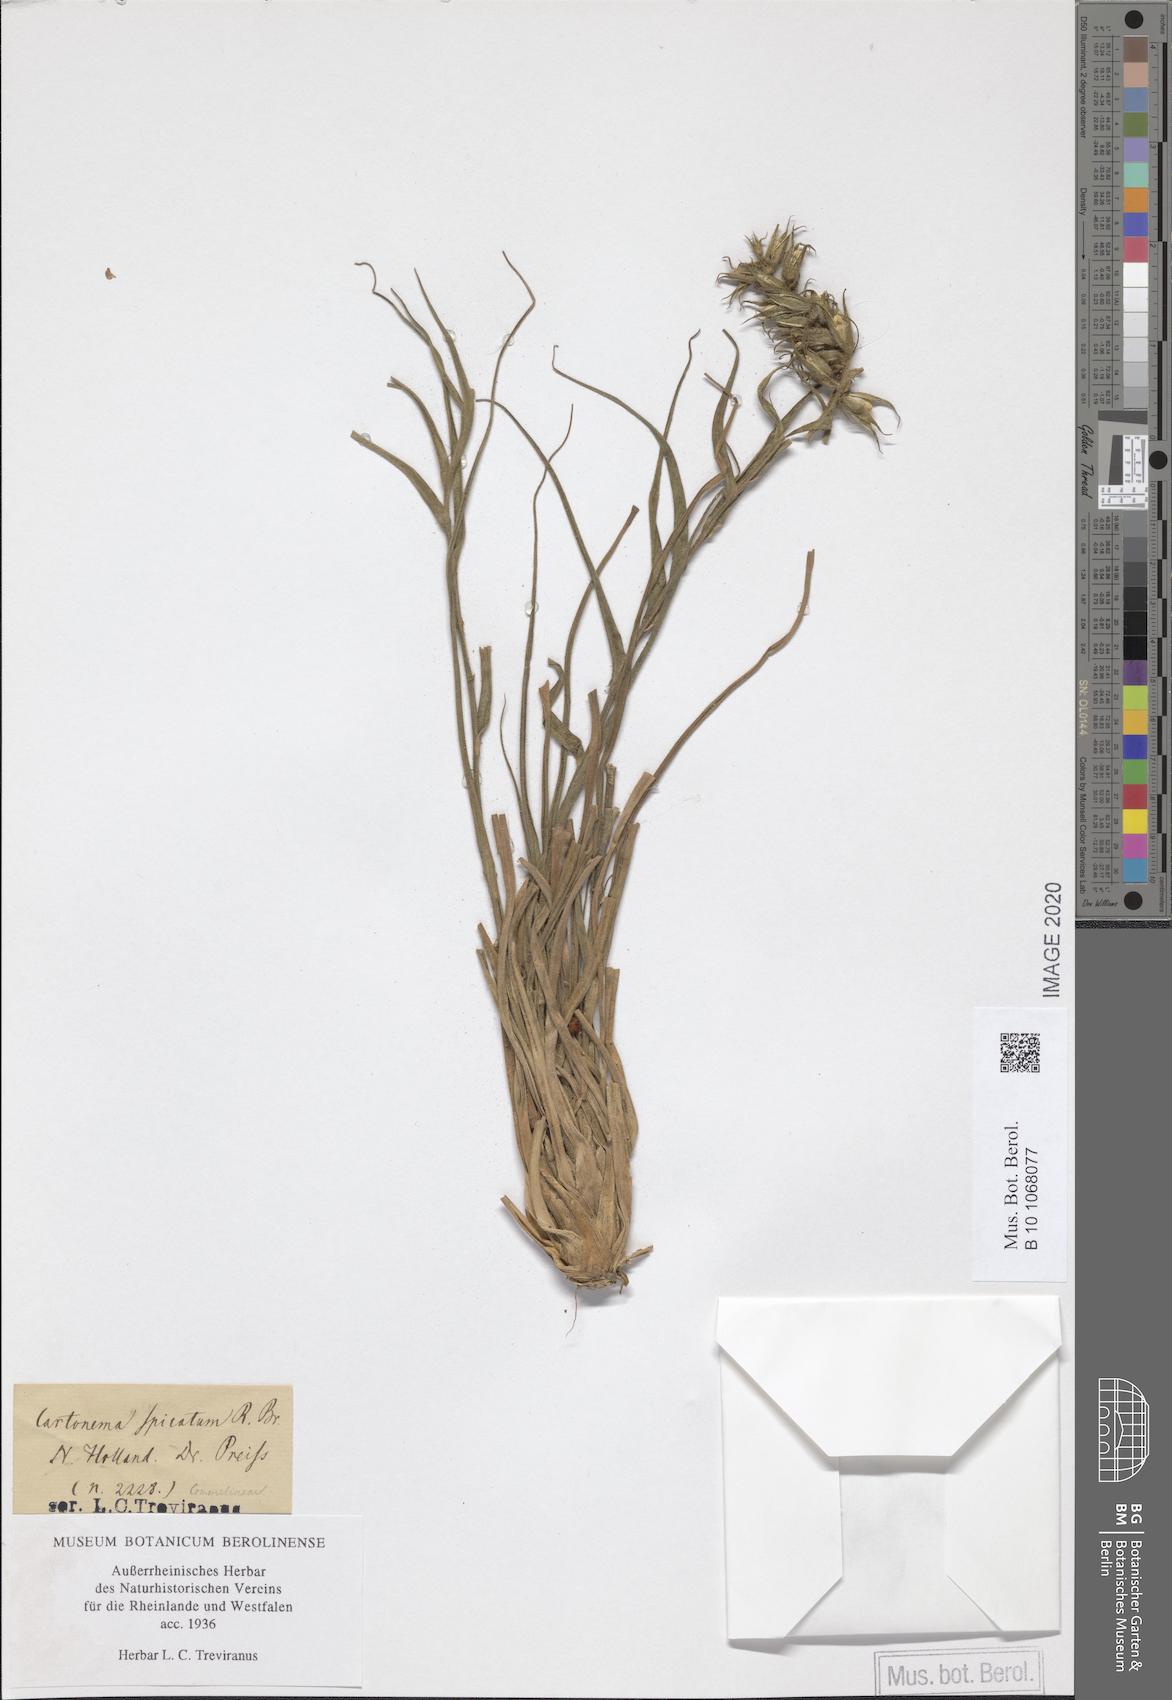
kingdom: Plantae
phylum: Tracheophyta
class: Liliopsida
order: Commelinales
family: Commelinaceae
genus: Cartonema
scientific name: Cartonema spicatum
